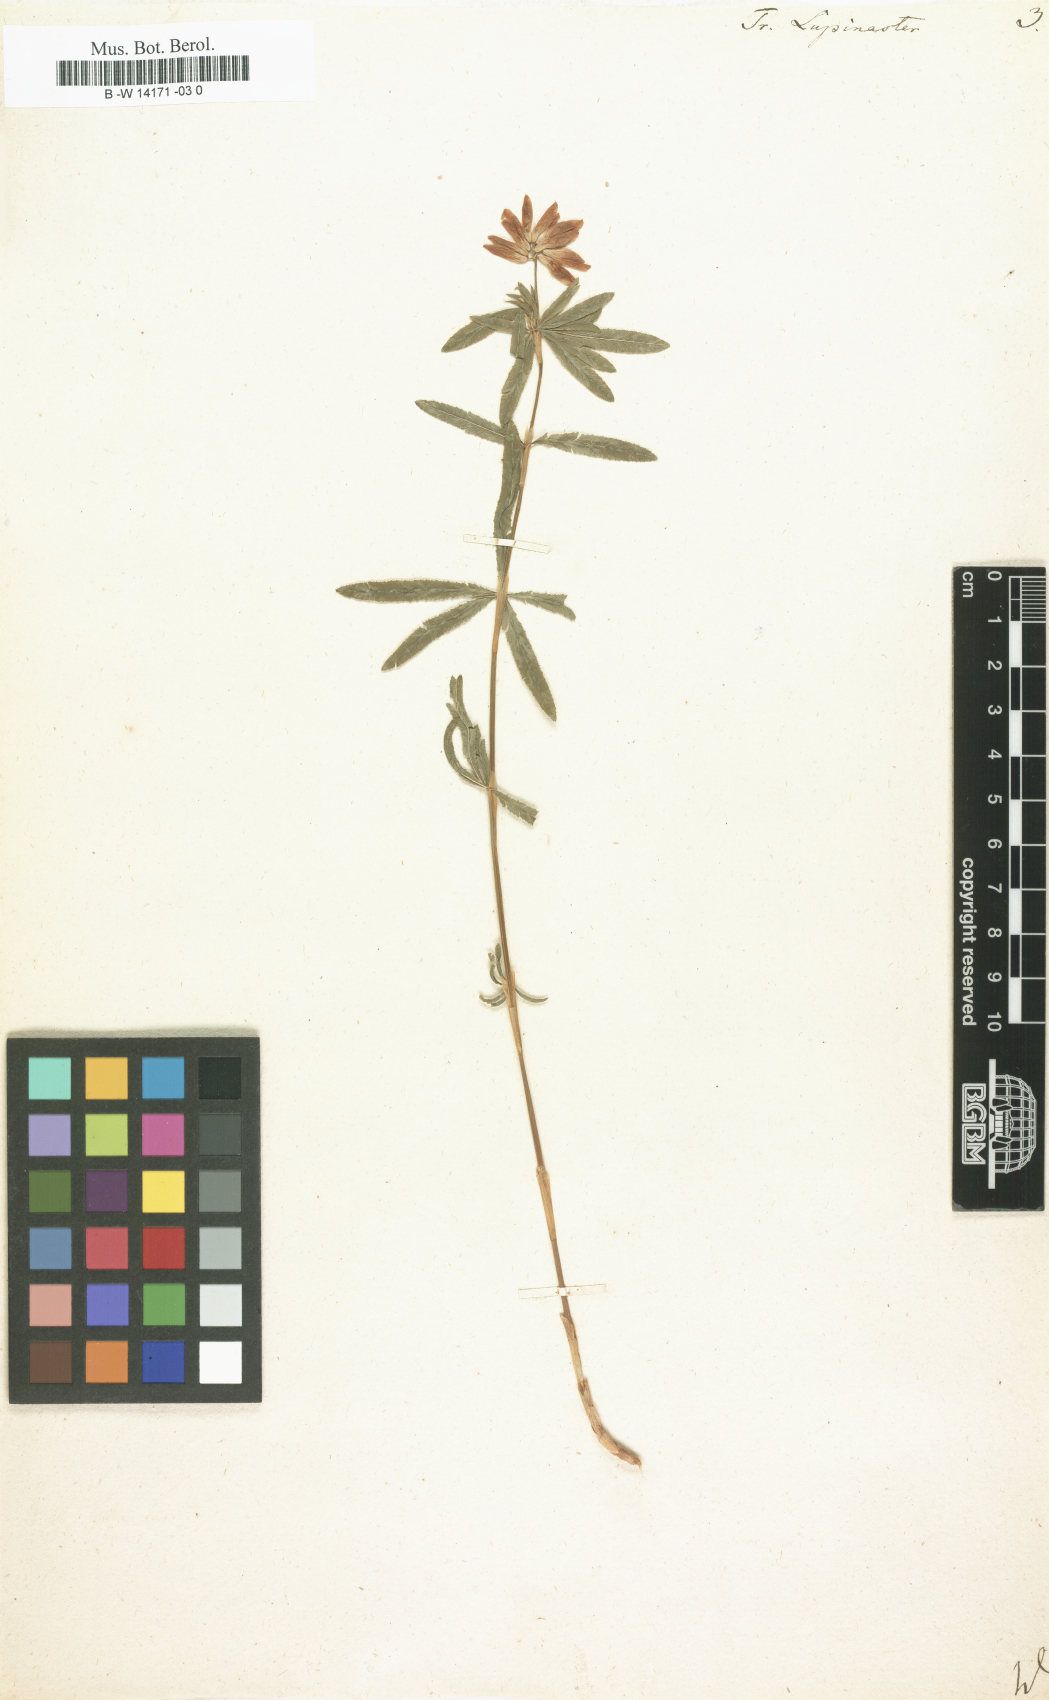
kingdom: Plantae
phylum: Tracheophyta
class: Magnoliopsida
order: Fabales
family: Fabaceae
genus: Trifolium
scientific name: Trifolium lupinaster
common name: Lupine clover
